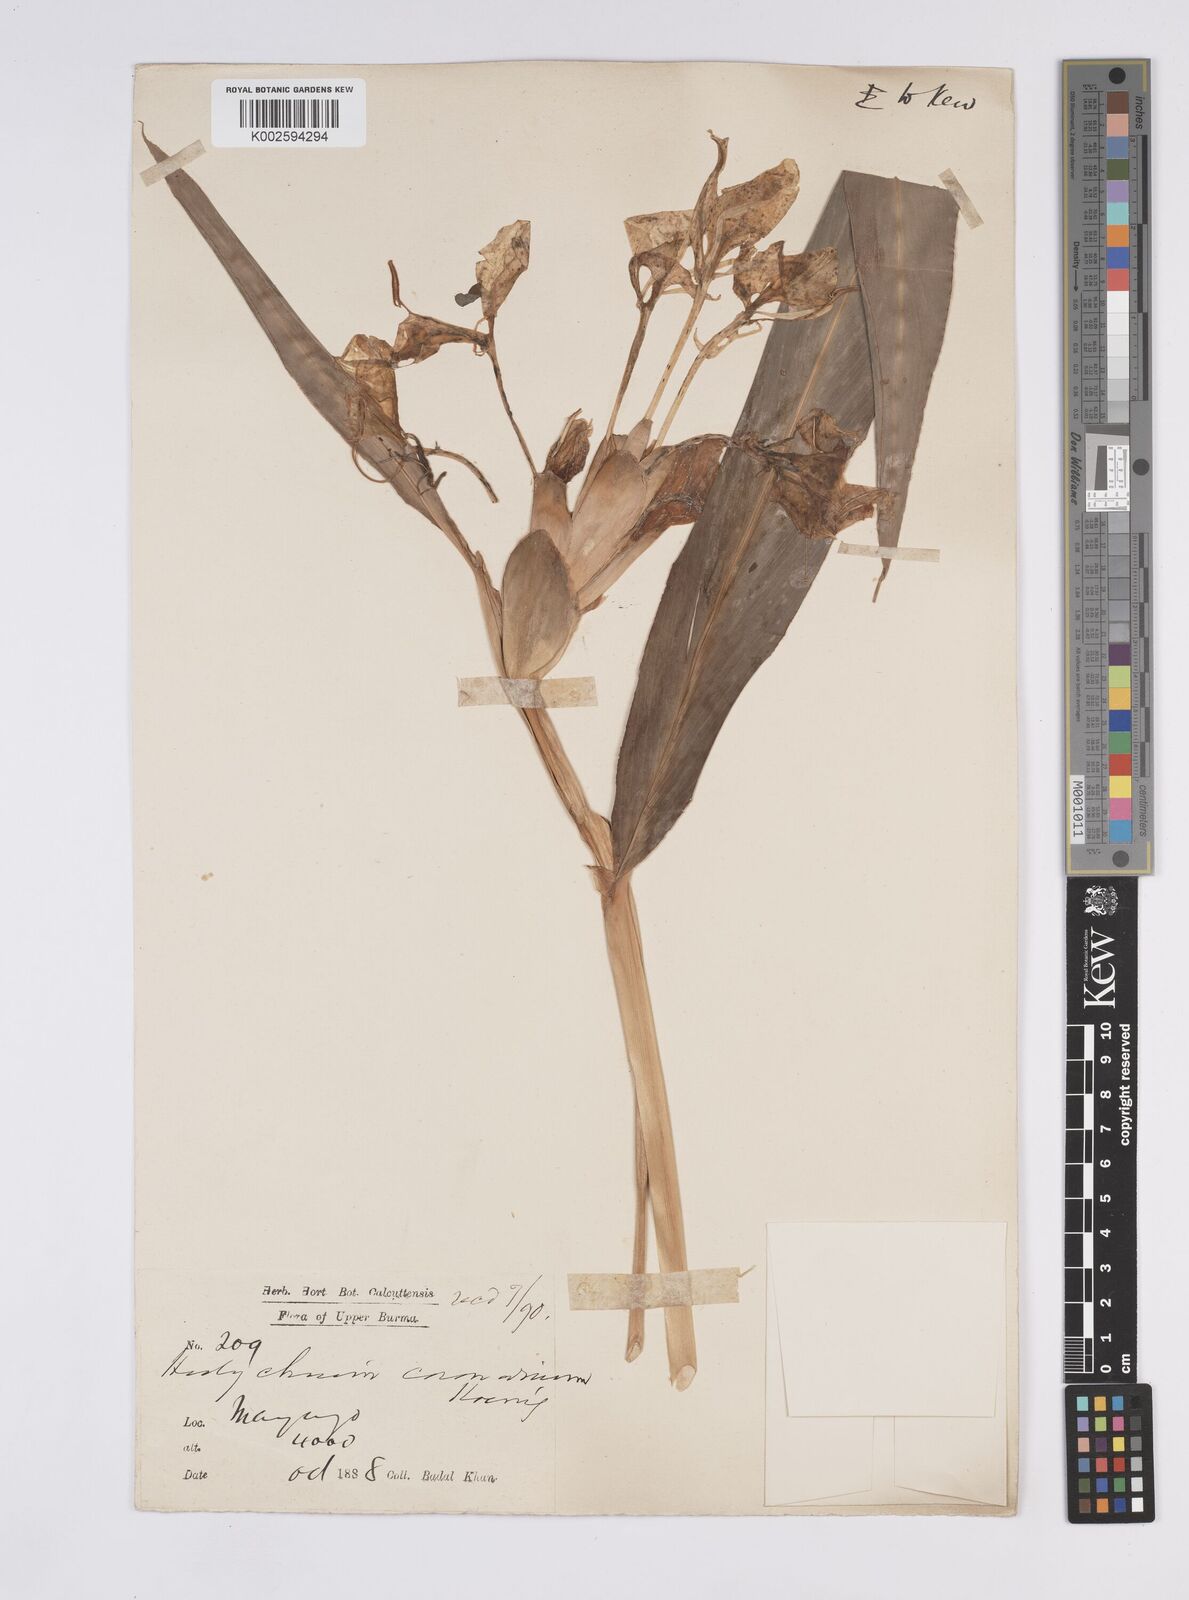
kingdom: Plantae
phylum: Tracheophyta
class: Liliopsida
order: Zingiberales
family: Zingiberaceae
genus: Hedychium
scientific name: Hedychium coronarium
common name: White garland-lily
